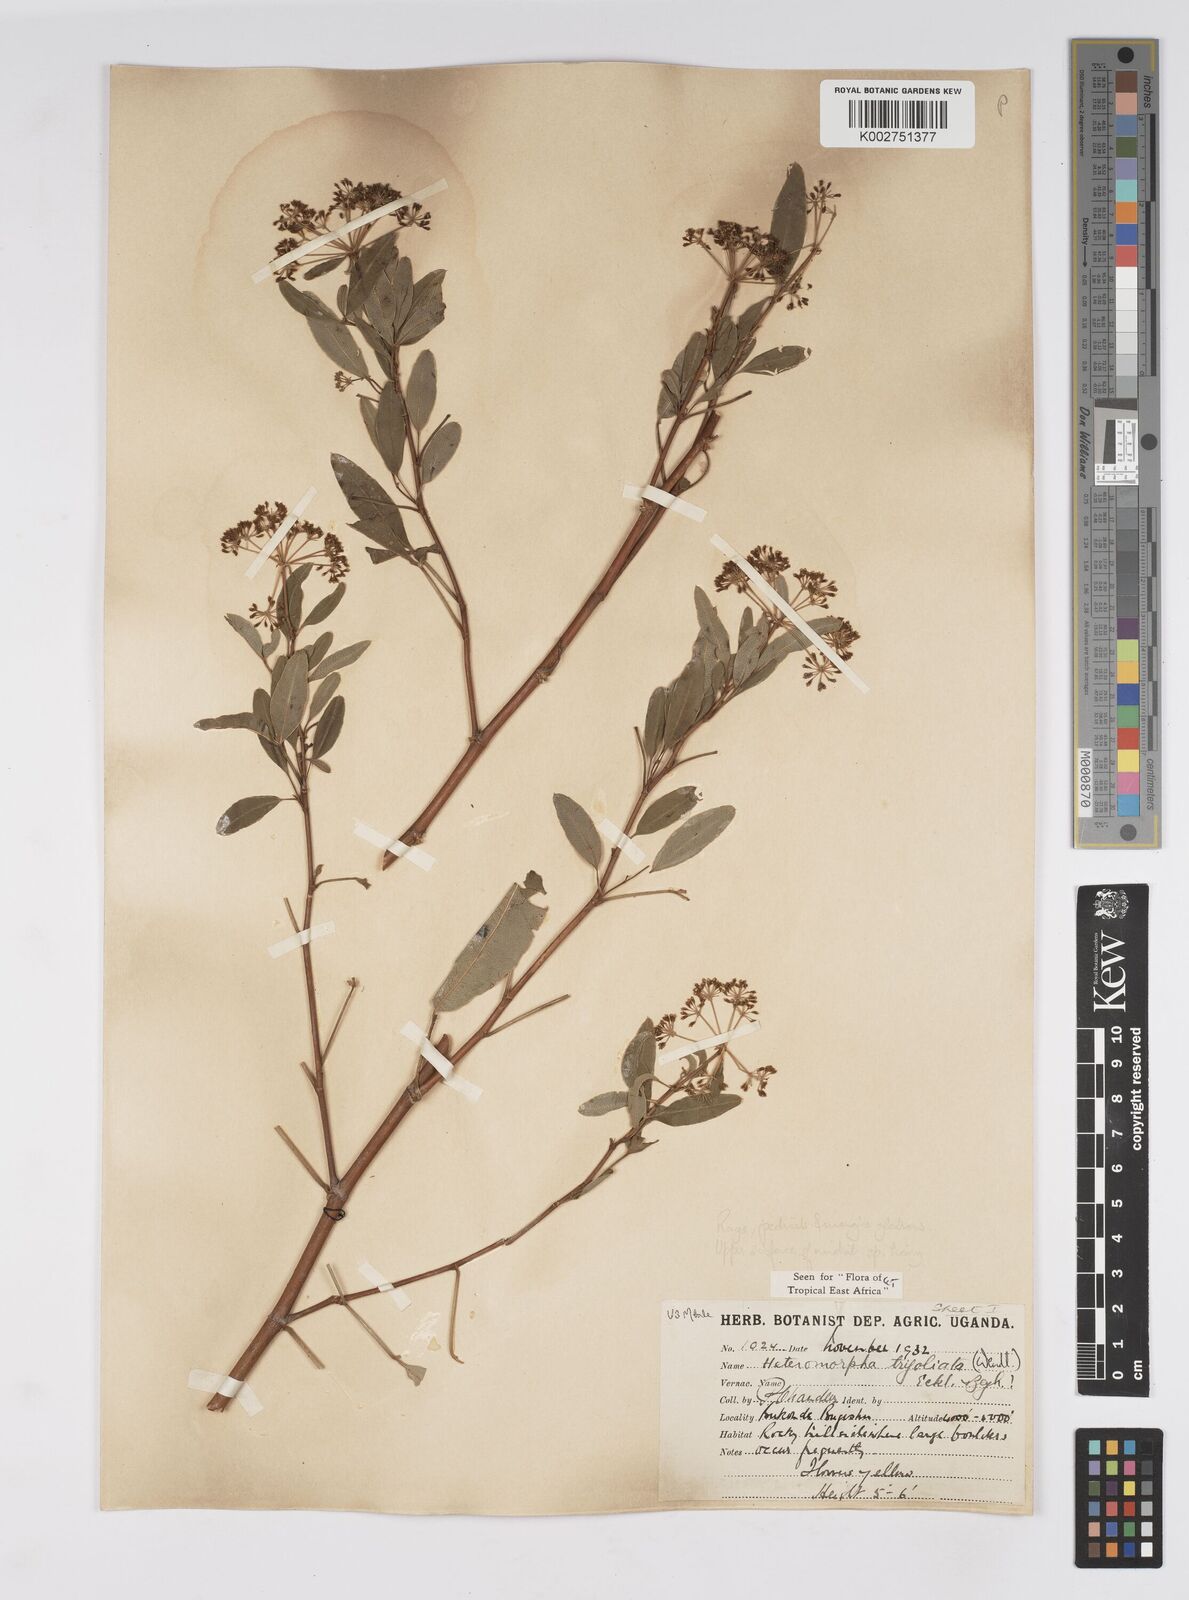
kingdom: Plantae
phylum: Tracheophyta
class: Magnoliopsida
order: Apiales
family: Apiaceae
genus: Heteromorpha
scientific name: Heteromorpha arborescens
